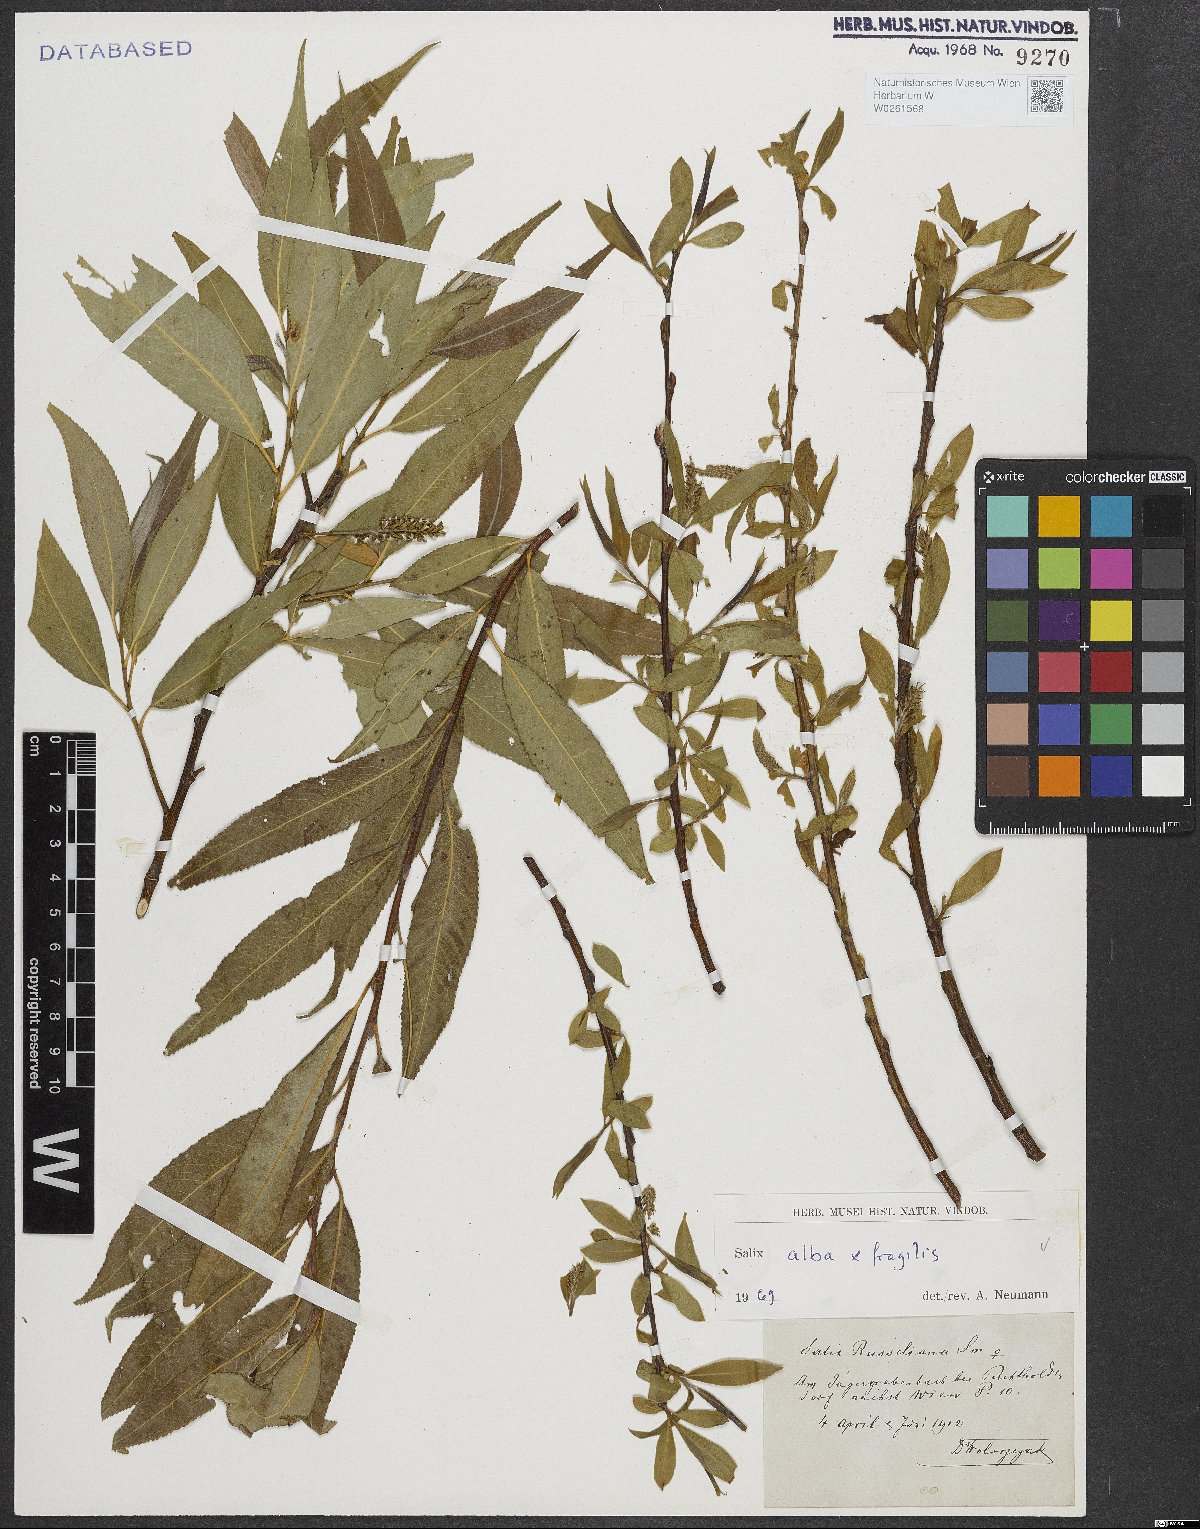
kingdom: Plantae
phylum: Tracheophyta
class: Magnoliopsida
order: Malpighiales
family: Salicaceae
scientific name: Salicaceae
